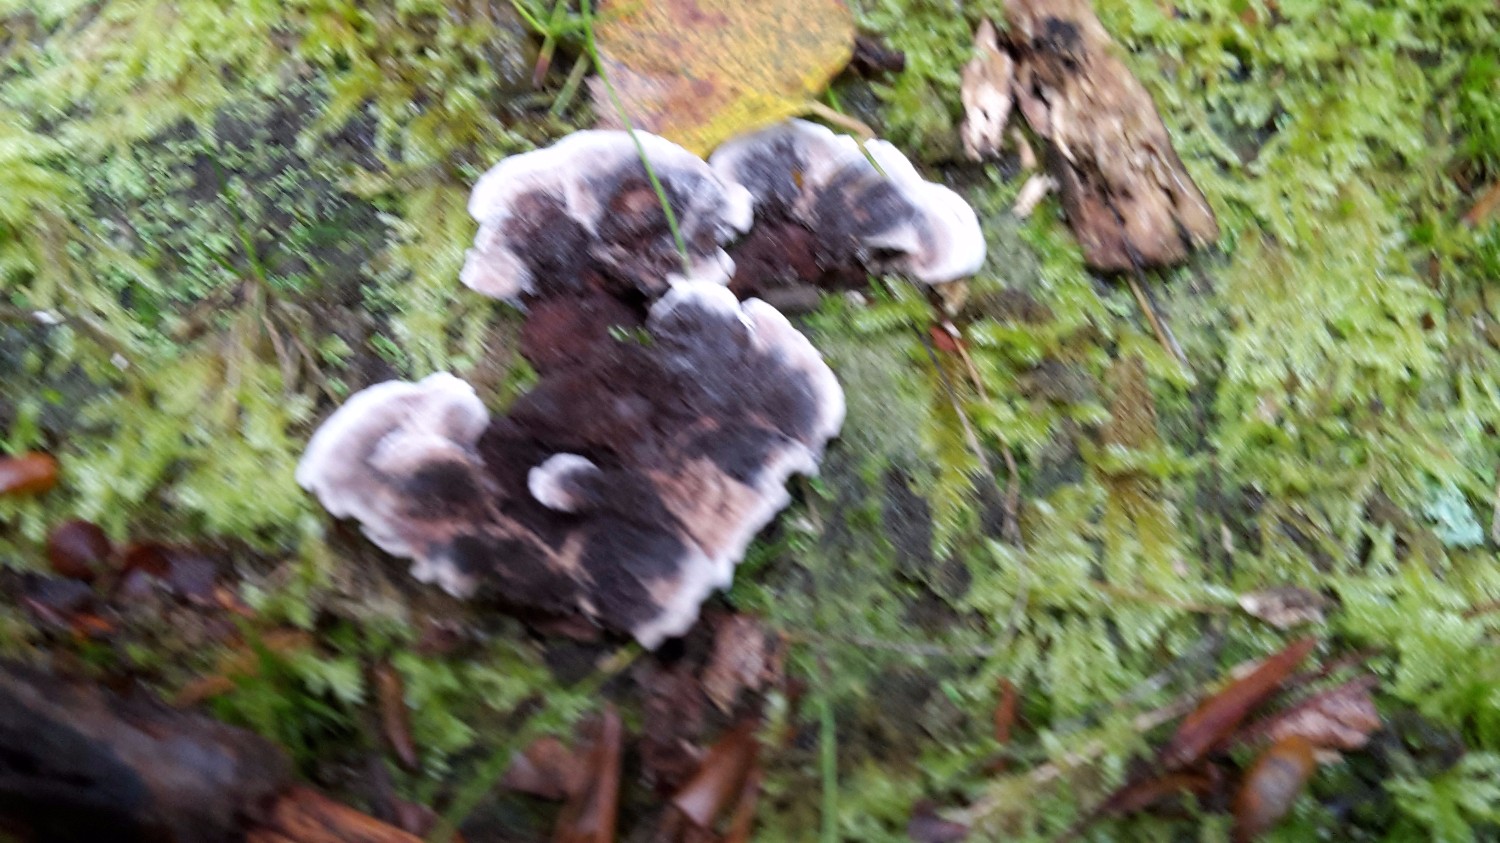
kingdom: Fungi
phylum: Basidiomycota
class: Agaricomycetes
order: Thelephorales
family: Thelephoraceae
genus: Phellodon
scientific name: Phellodon confluens
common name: pjaltet duftpigsvamp
